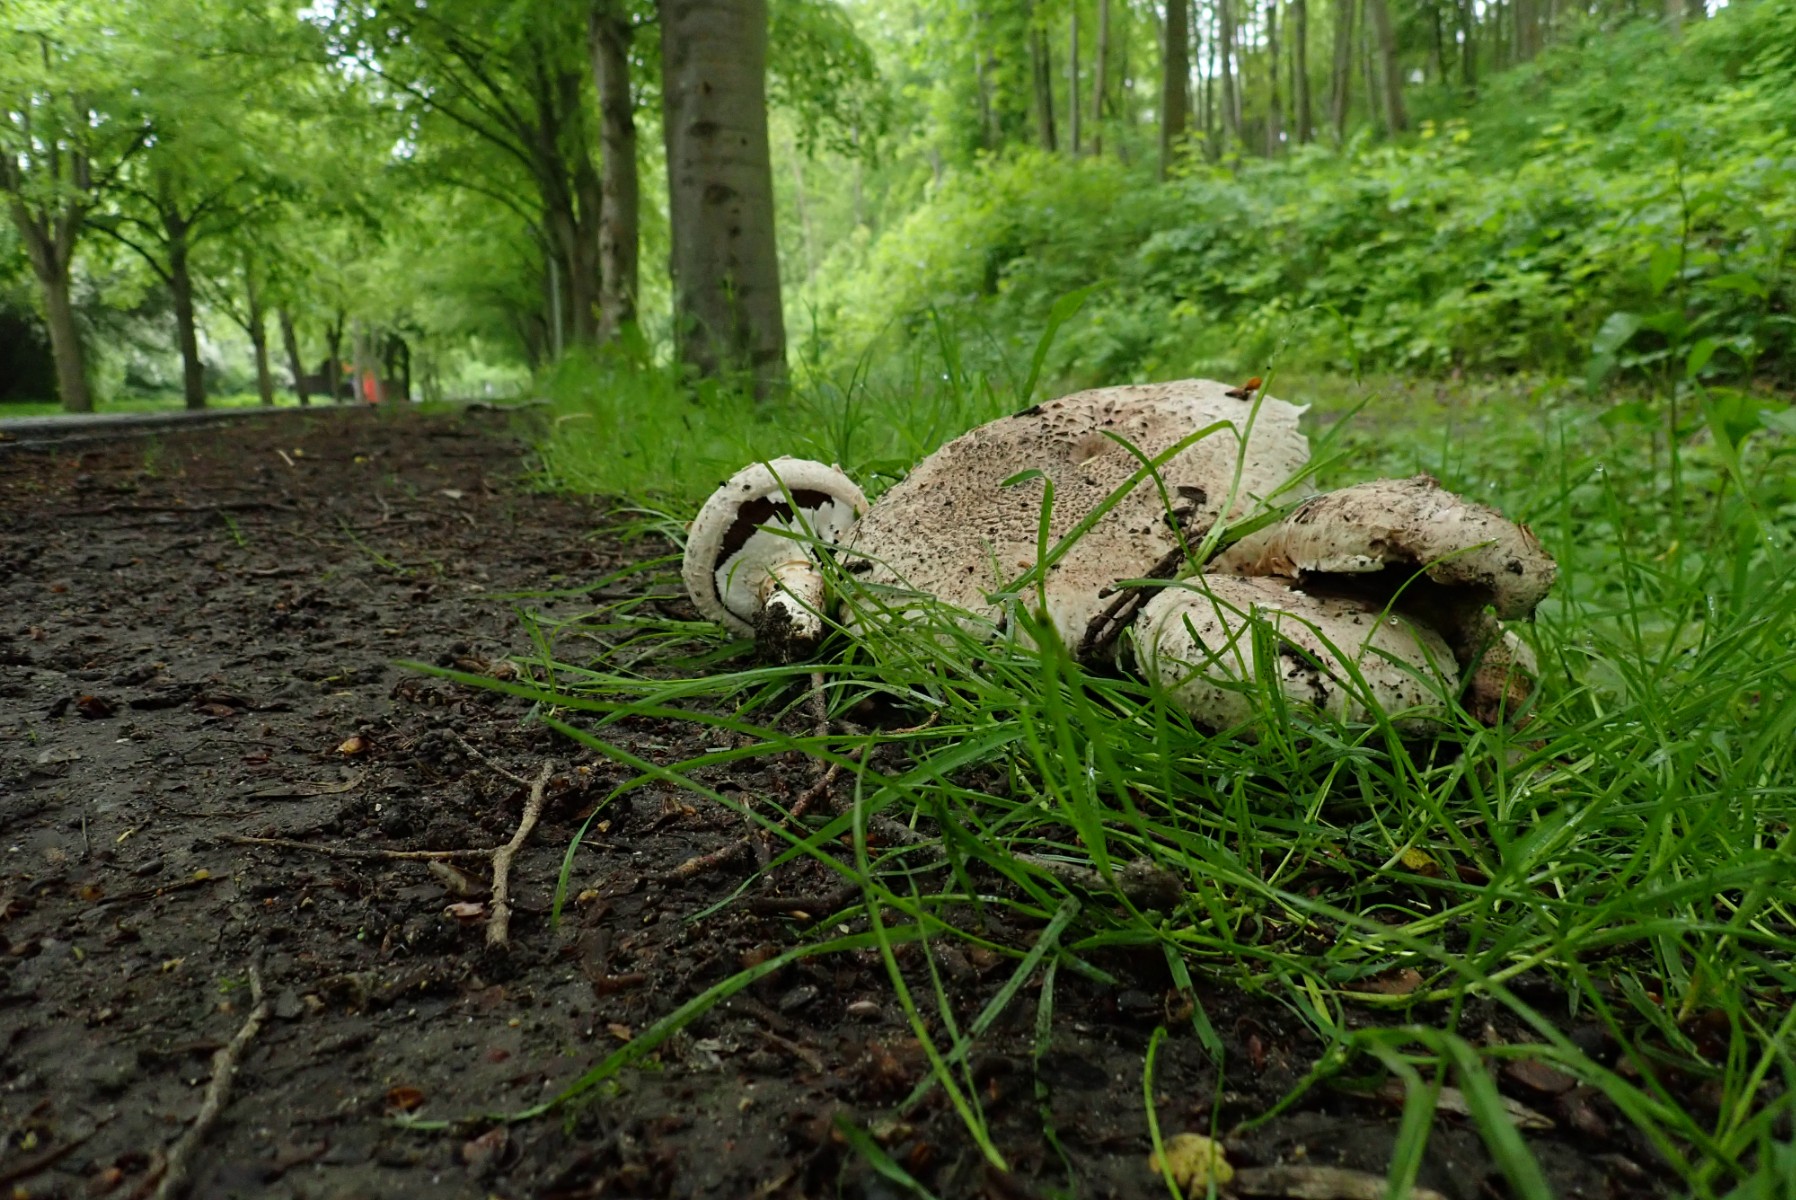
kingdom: Fungi
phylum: Basidiomycota
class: Agaricomycetes
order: Agaricales
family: Agaricaceae
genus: Agaricus
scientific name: Agaricus bernardii
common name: strandengs-champignon
